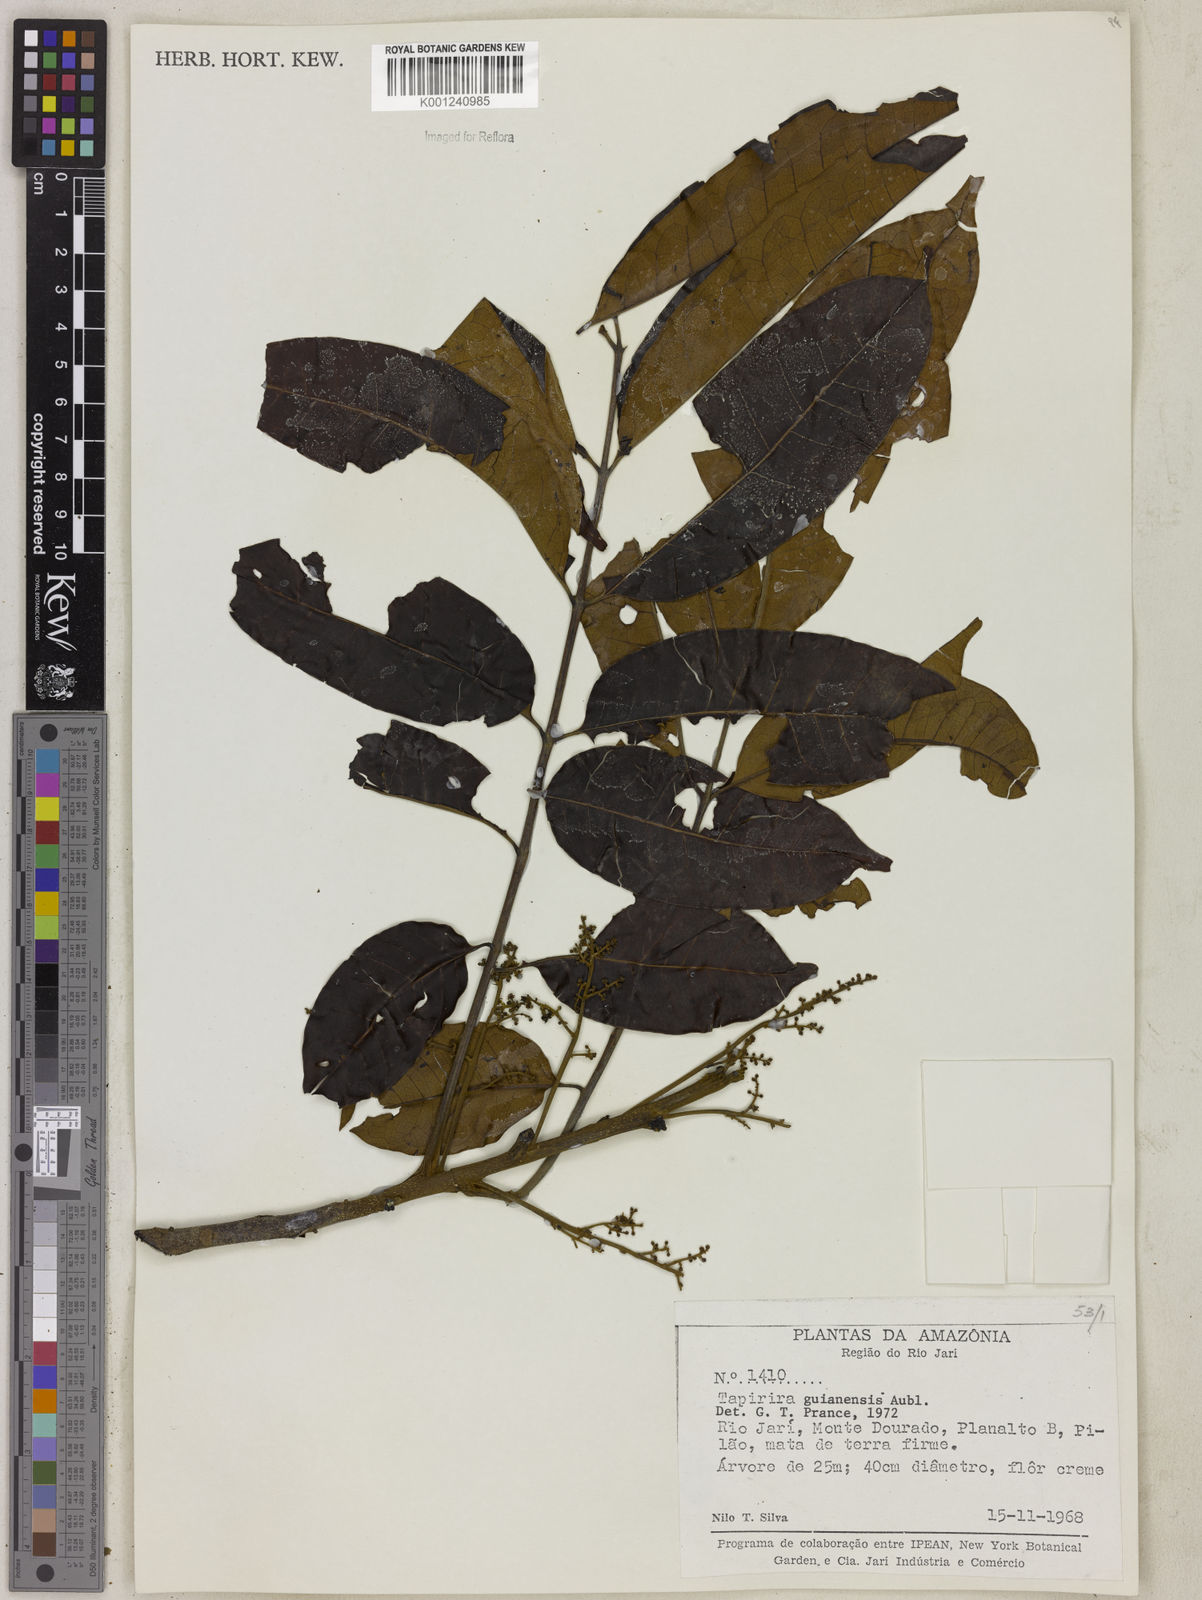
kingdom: Plantae
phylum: Tracheophyta
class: Magnoliopsida
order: Sapindales
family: Anacardiaceae
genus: Tapirira
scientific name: Tapirira guianensis
